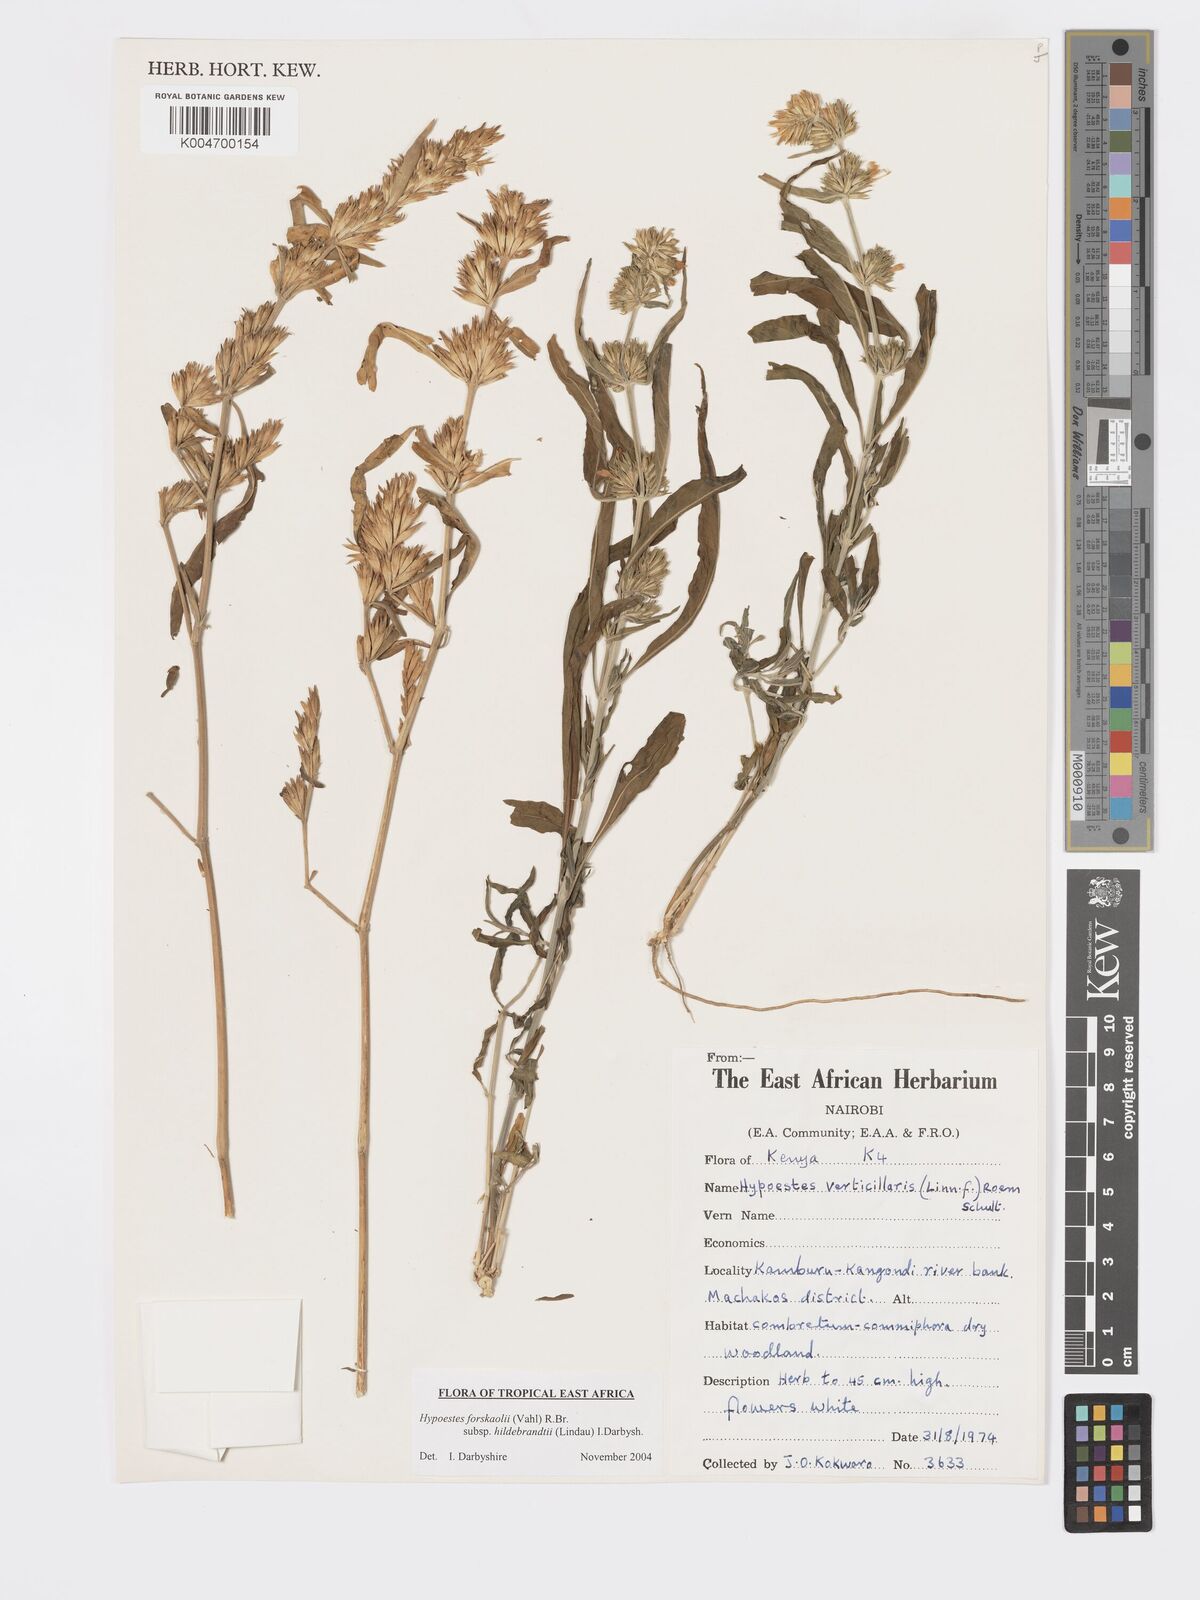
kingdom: Plantae
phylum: Tracheophyta
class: Magnoliopsida
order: Lamiales
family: Acanthaceae
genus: Hypoestes
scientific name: Hypoestes forskaolii
